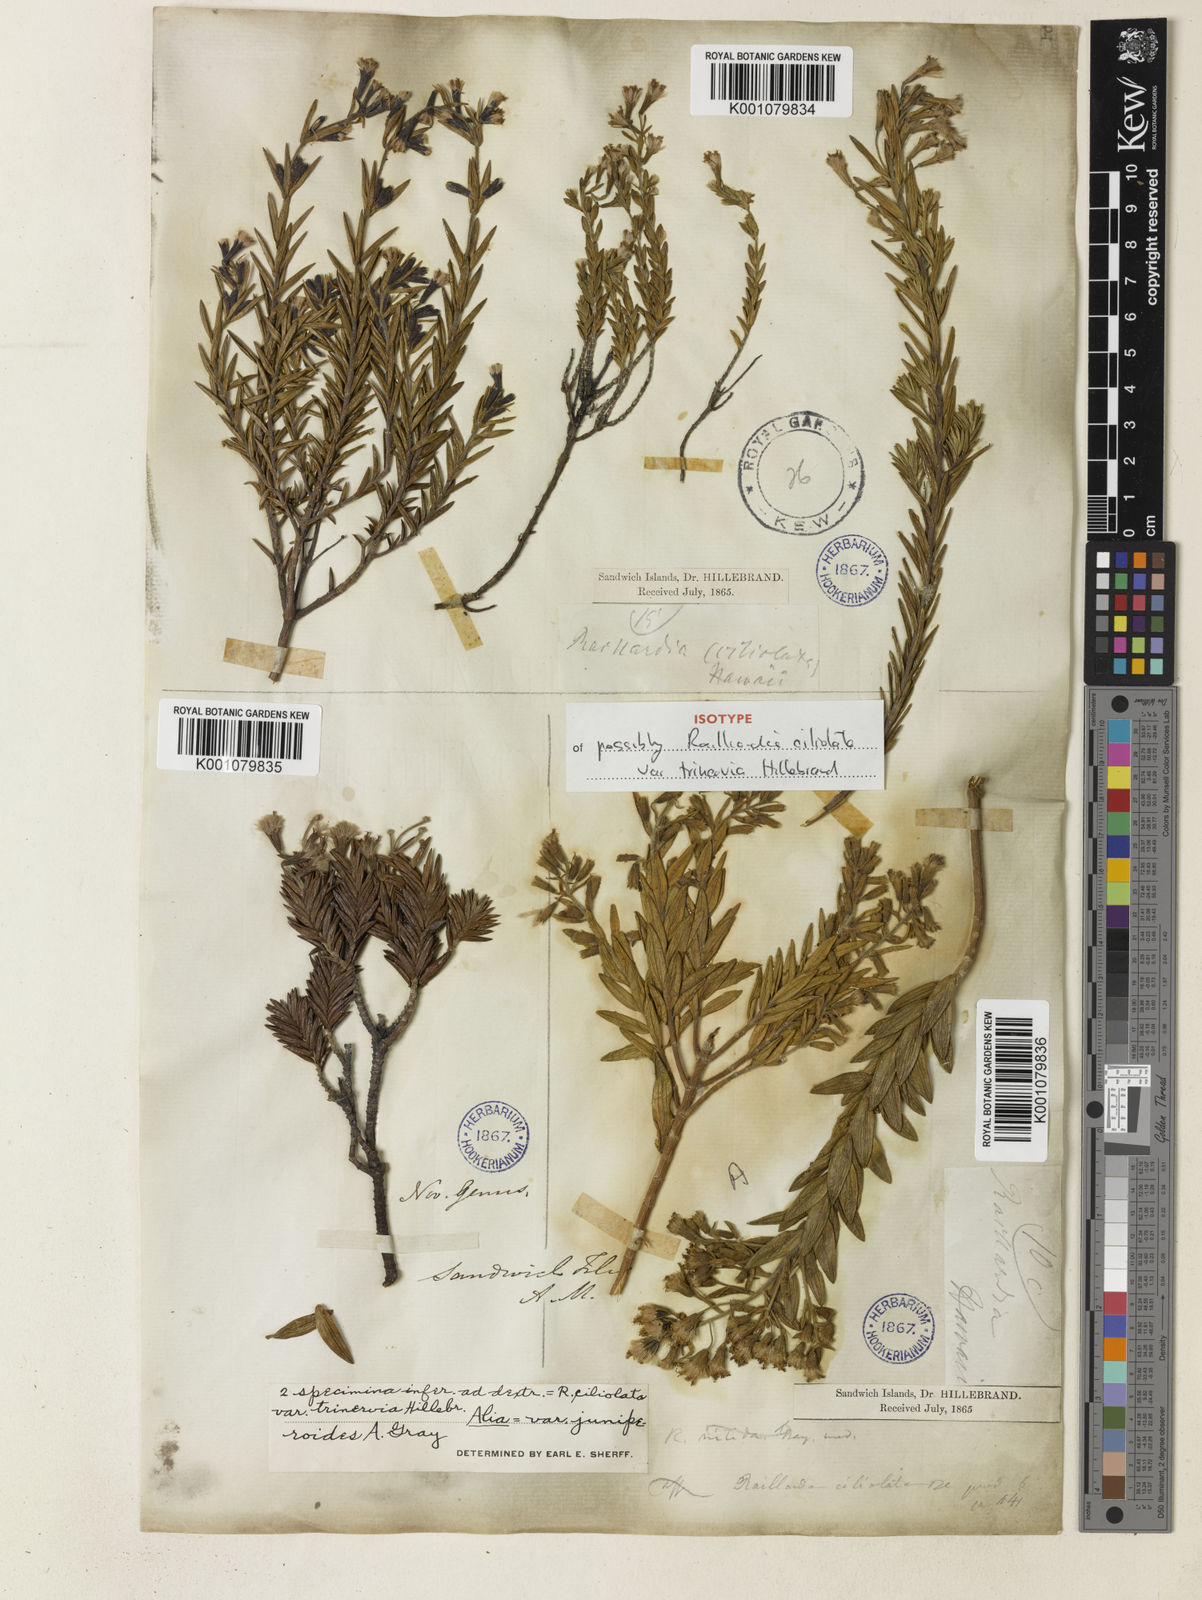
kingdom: Plantae
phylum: Tracheophyta
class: Magnoliopsida
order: Asterales
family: Asteraceae
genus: Dubautia
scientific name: Dubautia arborea
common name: Tree dubautia
